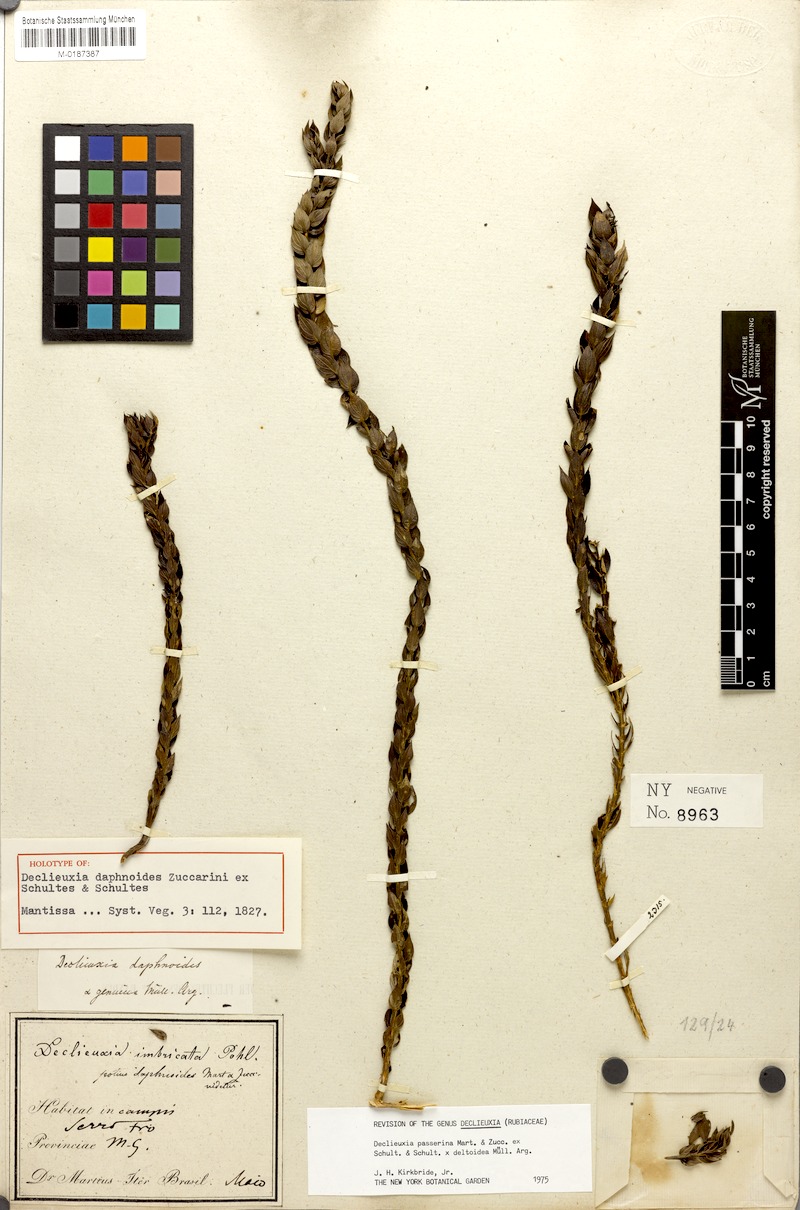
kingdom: Plantae
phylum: Tracheophyta
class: Magnoliopsida
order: Gentianales
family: Rubiaceae
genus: Declieuxia
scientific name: Declieuxia passerina
